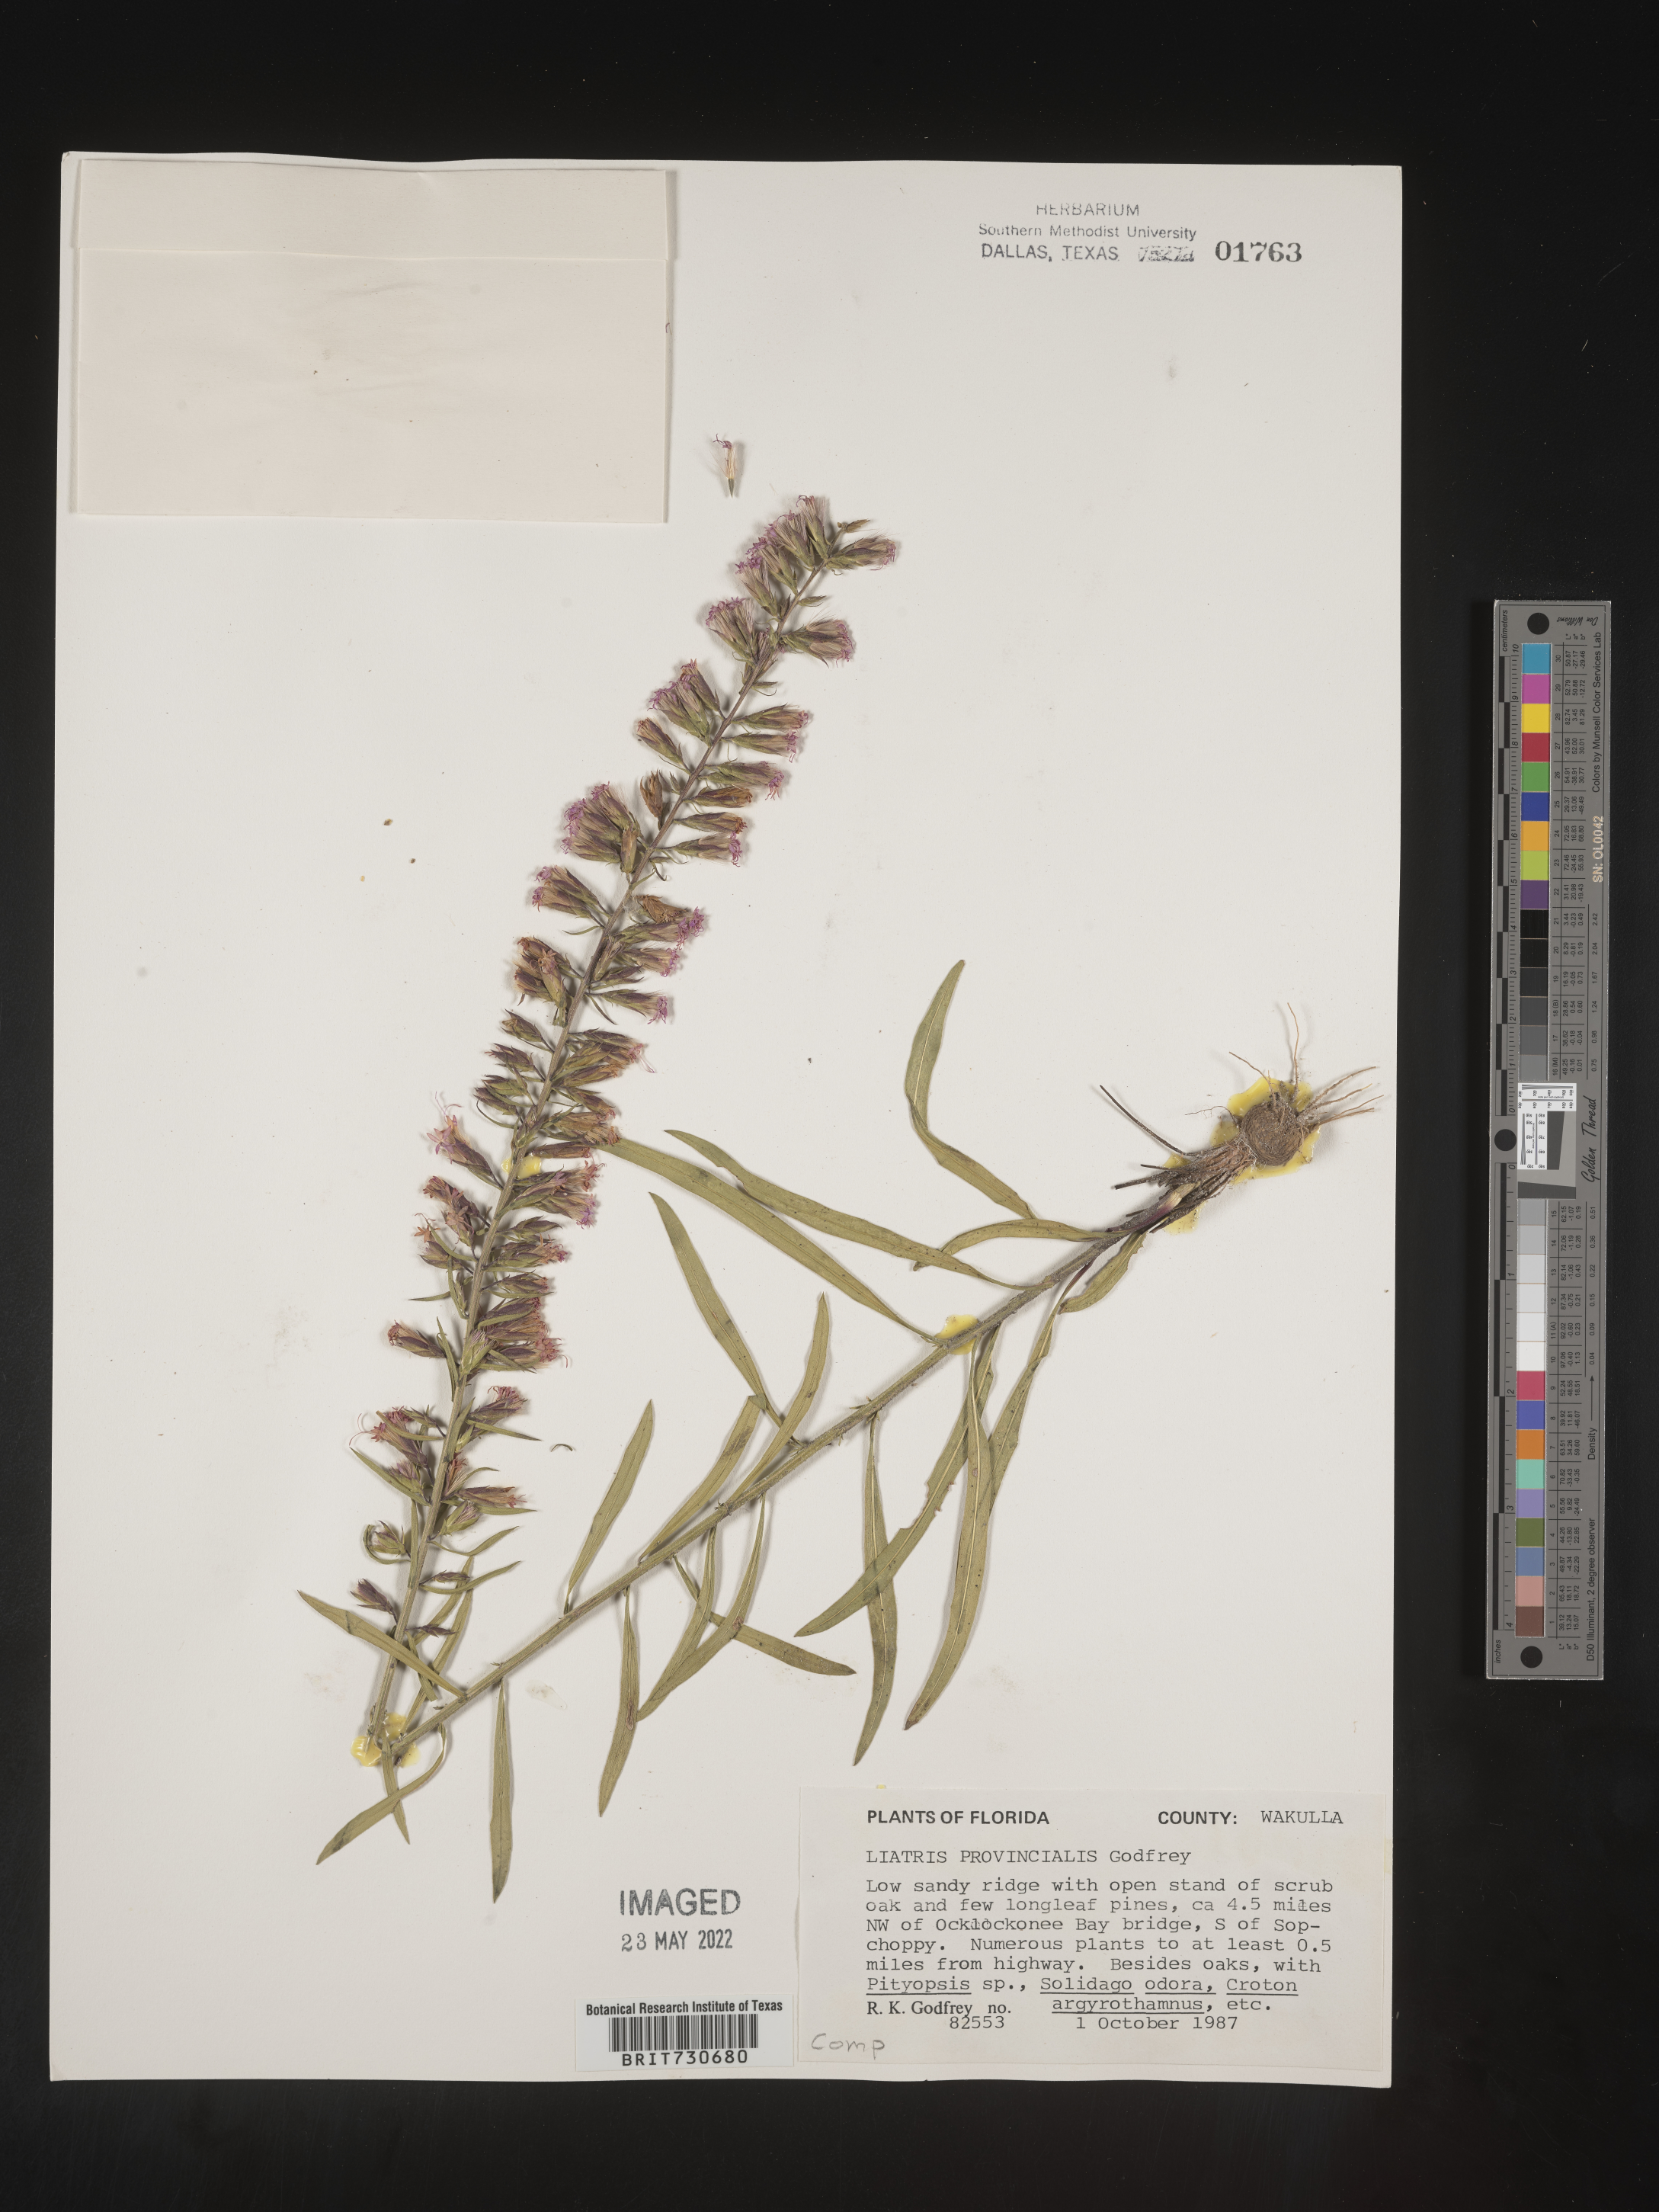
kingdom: Plantae
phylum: Tracheophyta
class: Magnoliopsida
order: Asterales
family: Asteraceae
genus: Liatris
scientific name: Liatris provincialis
